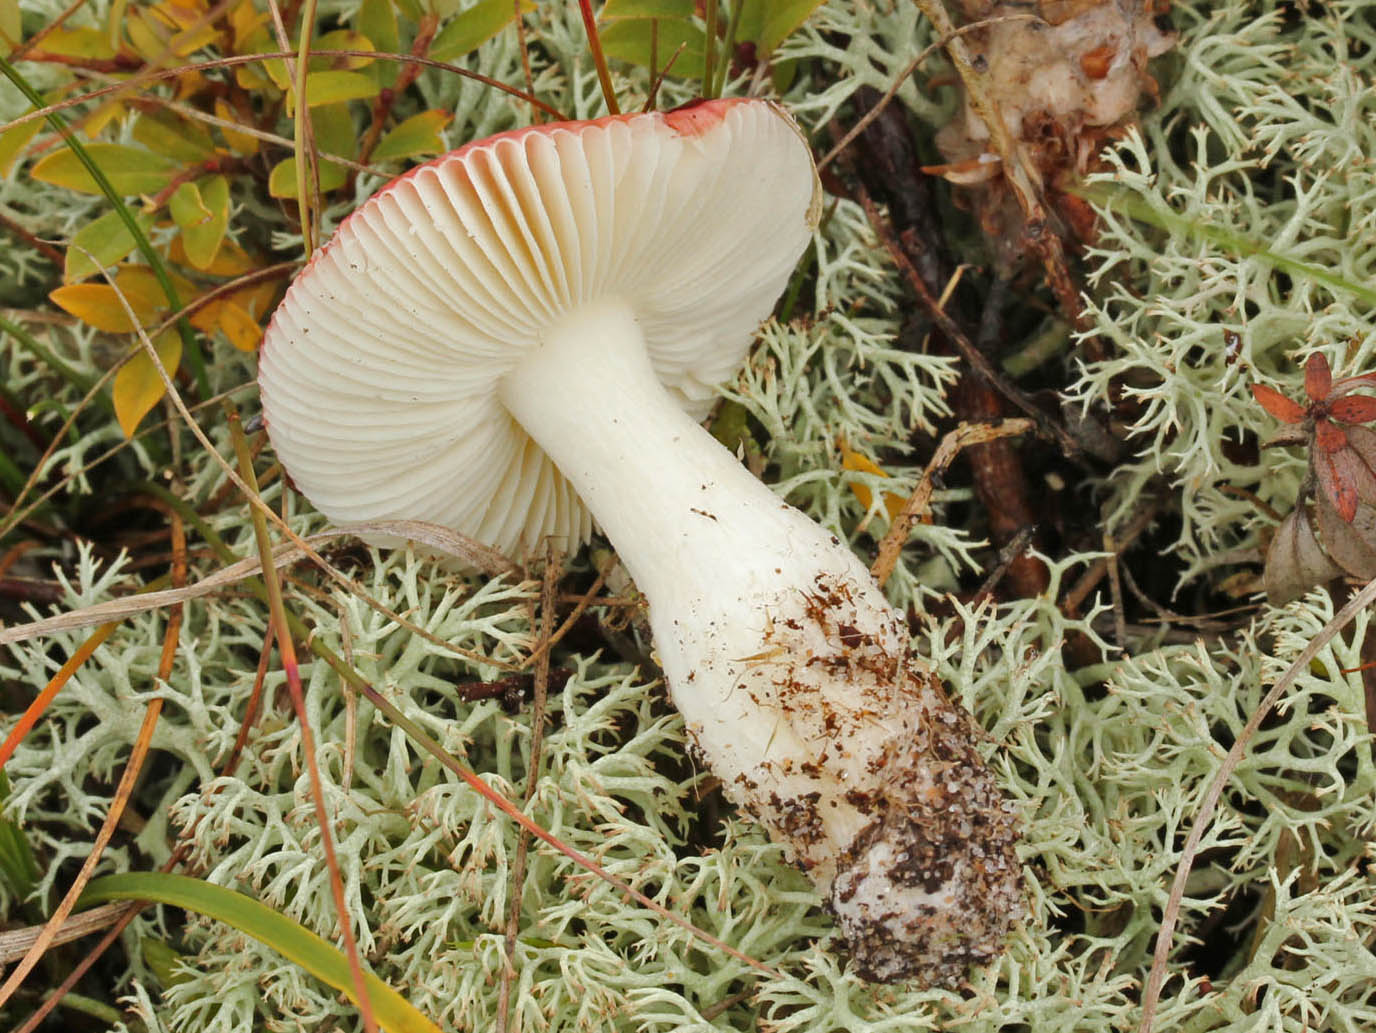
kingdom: Fungi
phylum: Basidiomycota
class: Agaricomycetes
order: Russulales
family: Russulaceae
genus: Russula
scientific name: Russula laccata
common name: klit-skørhat
